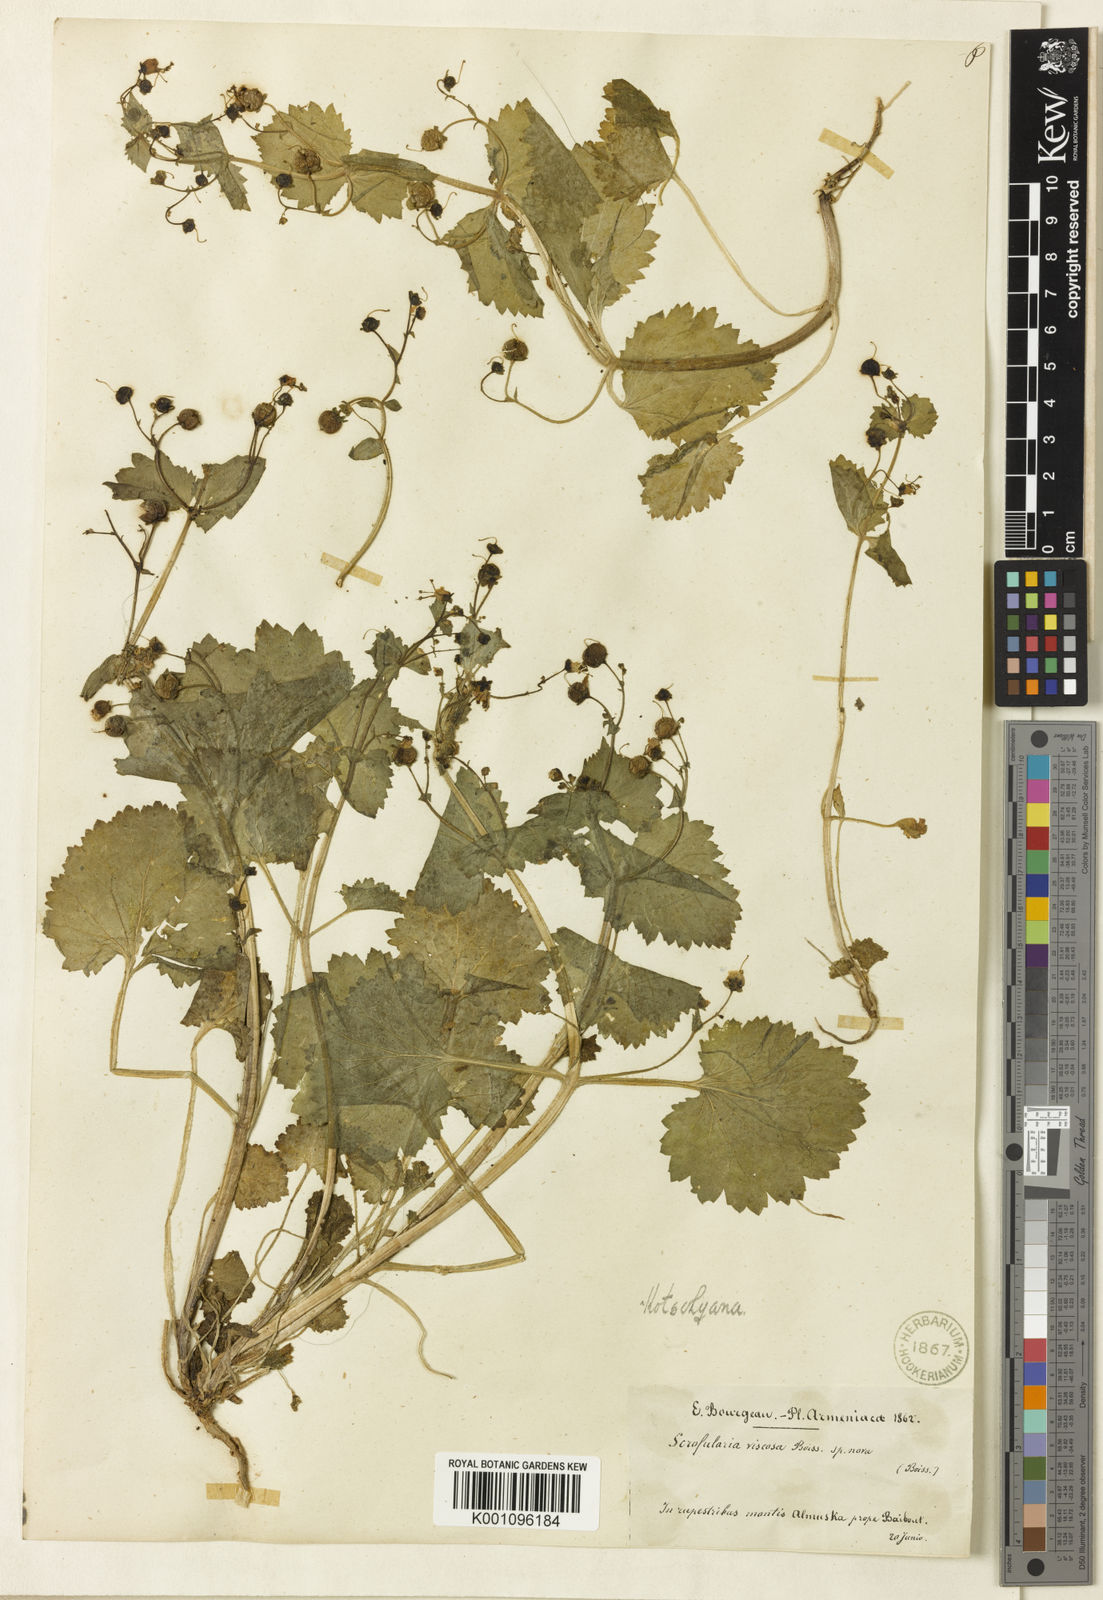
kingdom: Plantae
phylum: Tracheophyta
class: Magnoliopsida
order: Lamiales
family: Scrophulariaceae
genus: Scrophularia
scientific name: Scrophularia kotschyana
